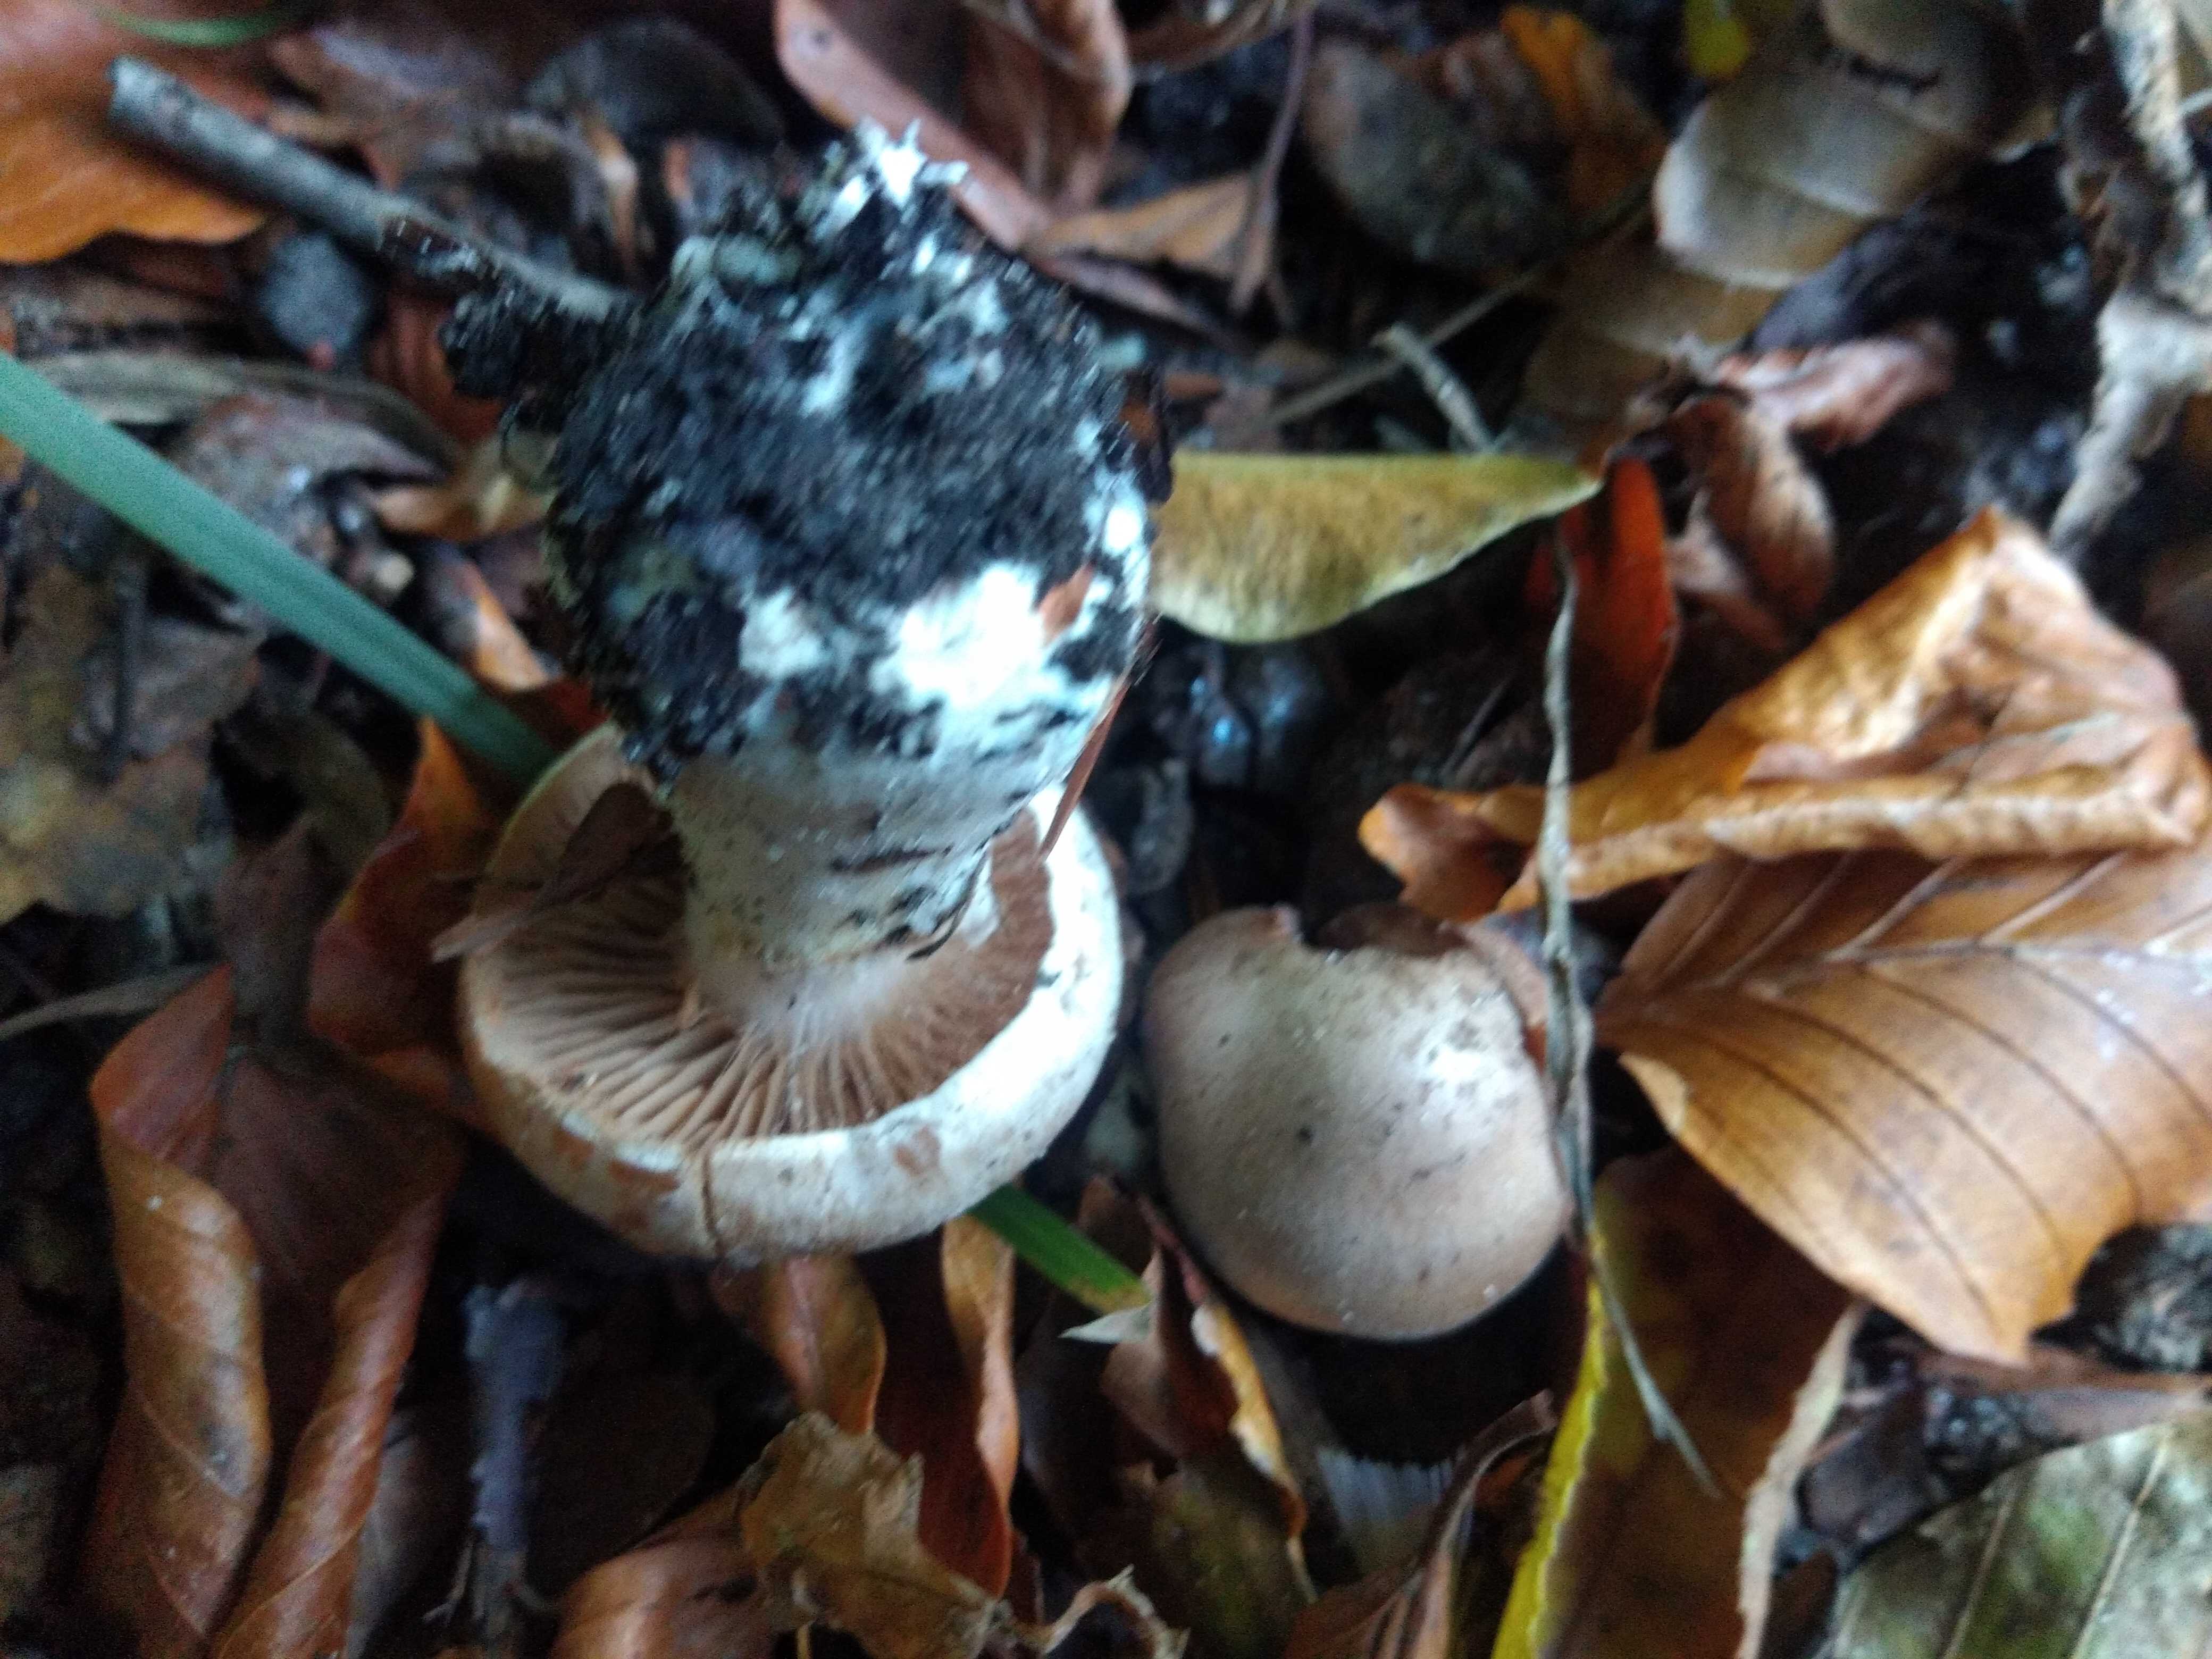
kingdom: Fungi
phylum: Basidiomycota
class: Agaricomycetes
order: Agaricales
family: Cortinariaceae
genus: Cortinarius
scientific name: Cortinarius
